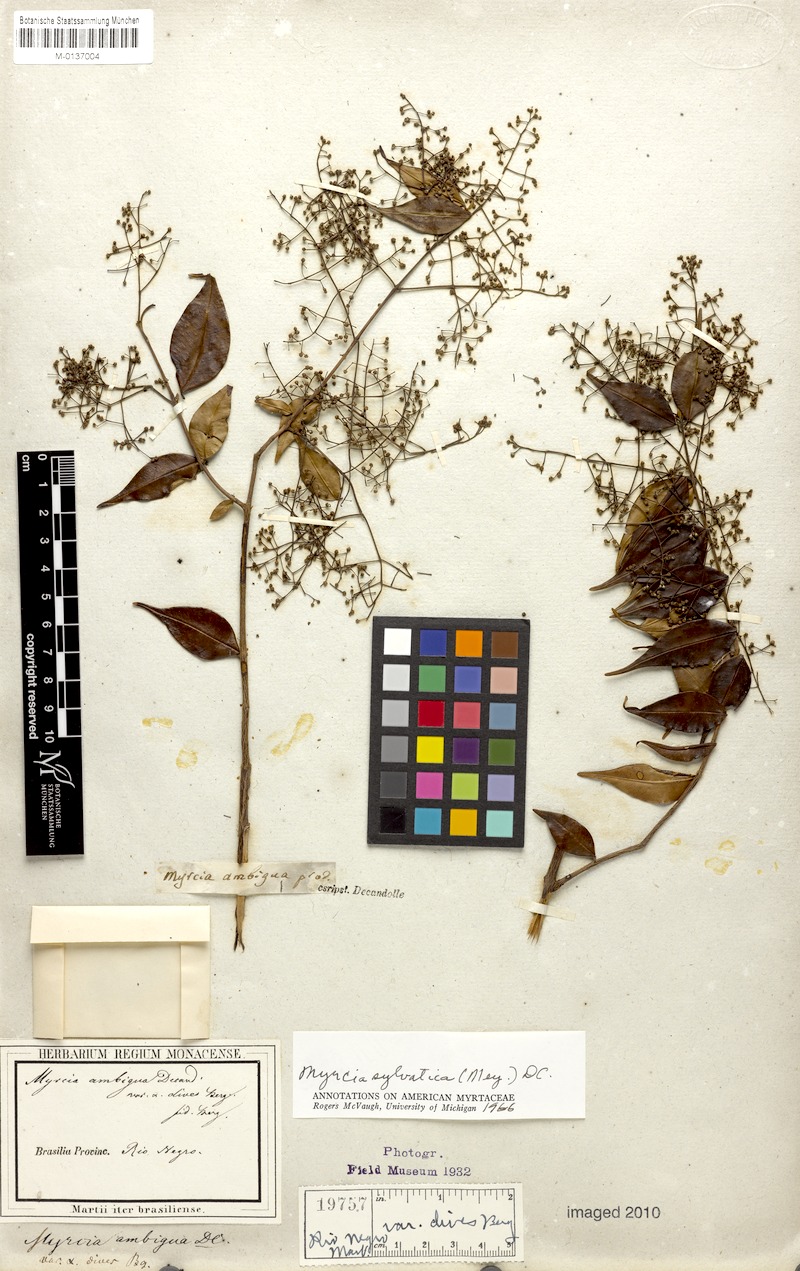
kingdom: Plantae
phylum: Tracheophyta
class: Magnoliopsida
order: Myrtales
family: Myrtaceae
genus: Myrcia
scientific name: Myrcia sylvatica
